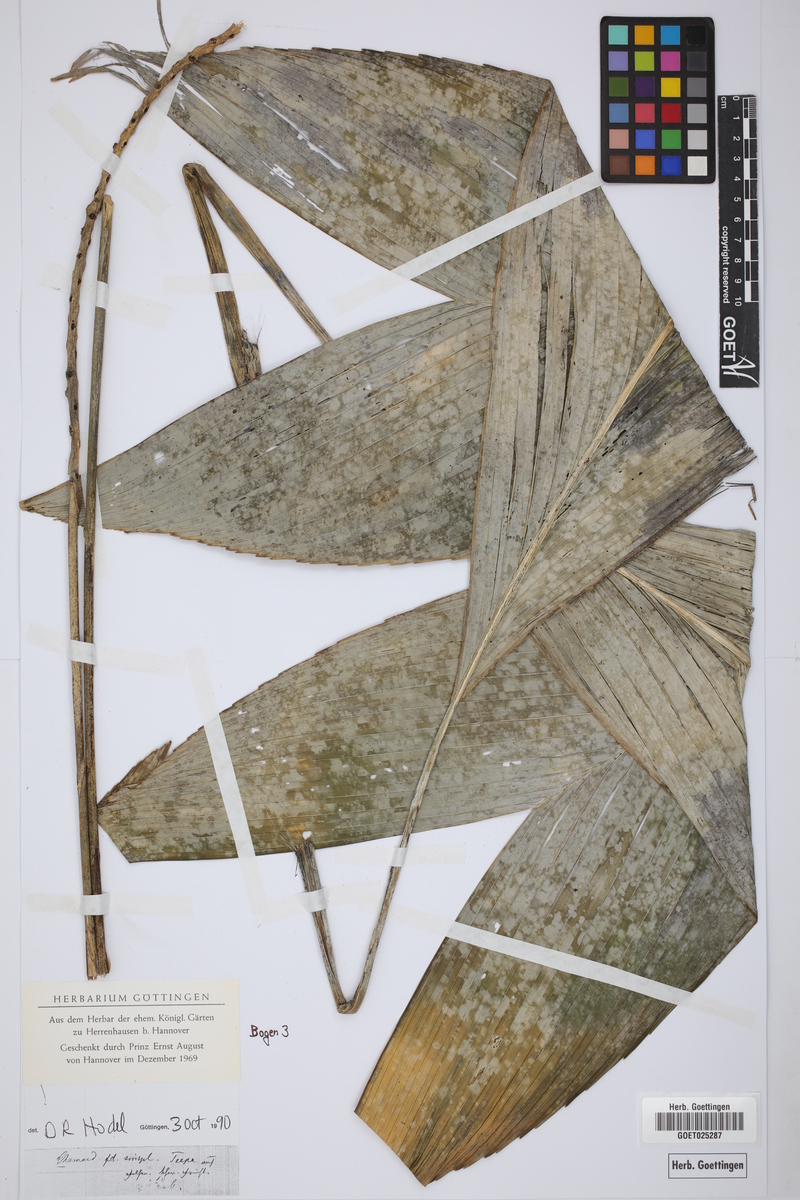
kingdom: Plantae
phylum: Tracheophyta
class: Liliopsida
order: Arecales
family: Arecaceae
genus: Chamaedorea
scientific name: Chamaedorea ernesti-augusti
